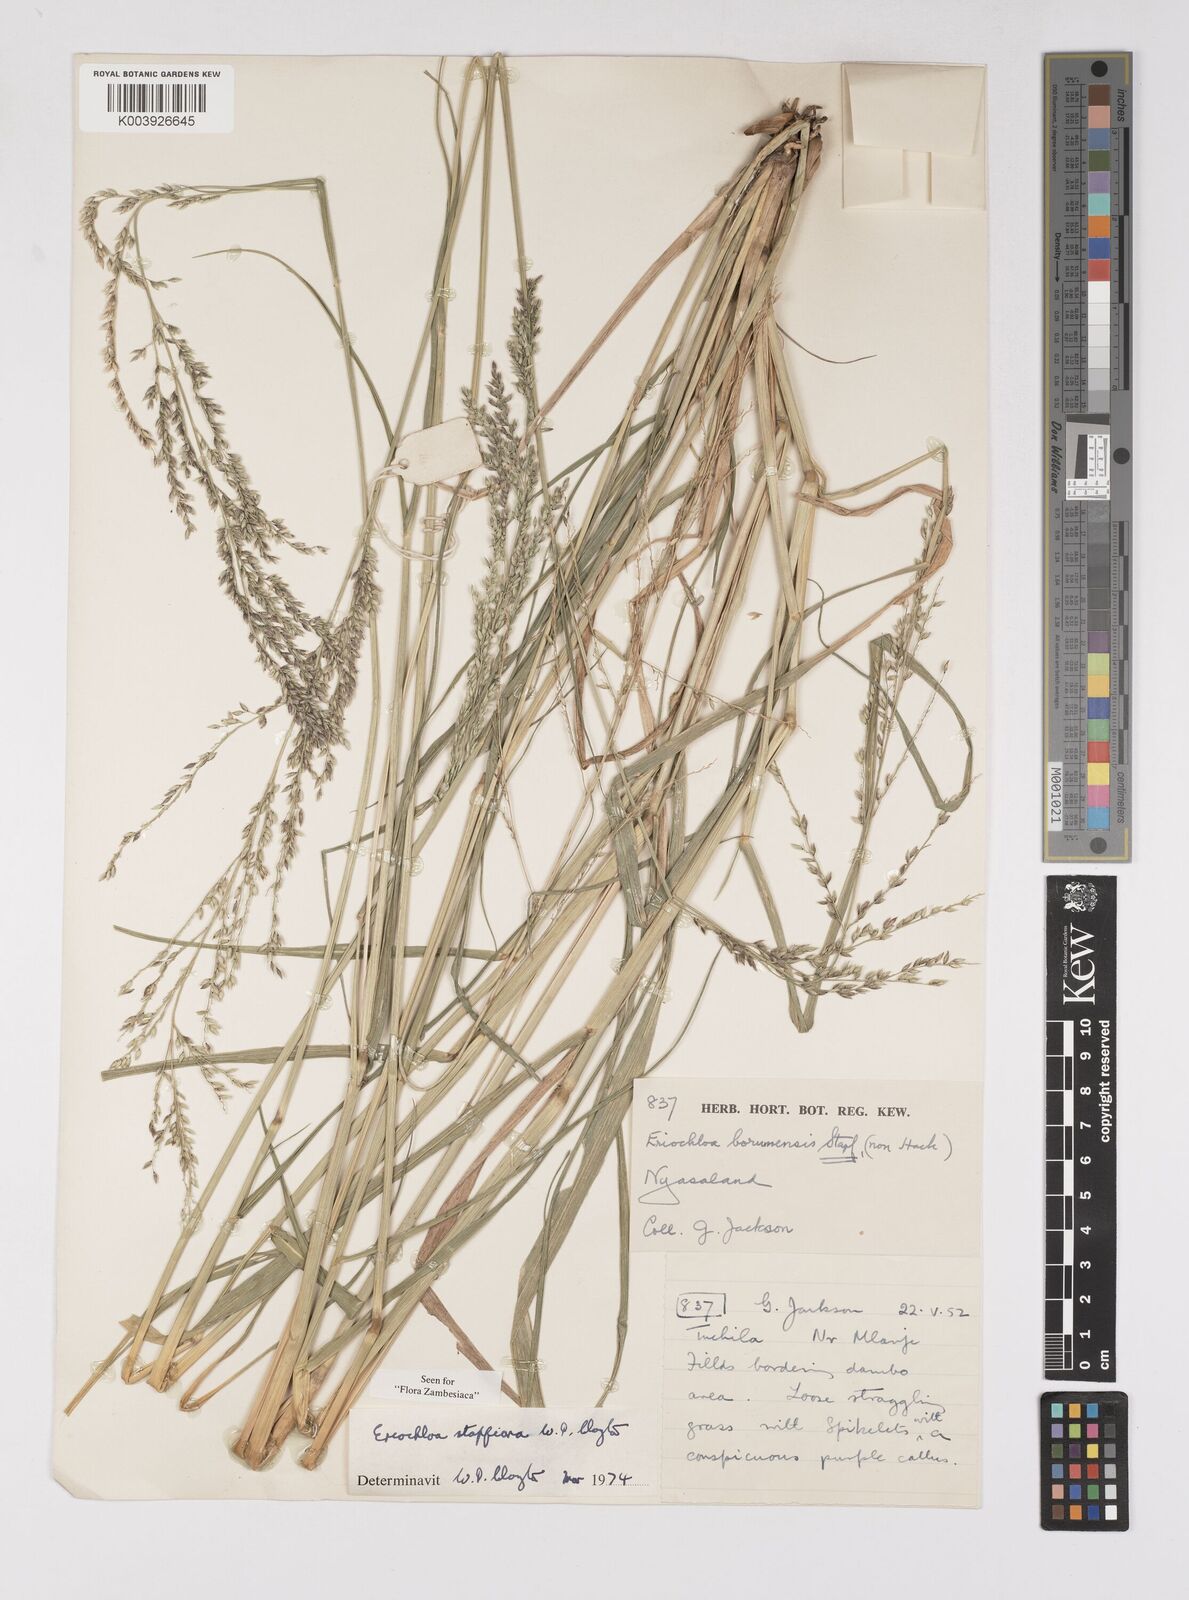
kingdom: Plantae
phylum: Tracheophyta
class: Liliopsida
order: Poales
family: Poaceae
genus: Eriochloa
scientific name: Eriochloa stapfiana
